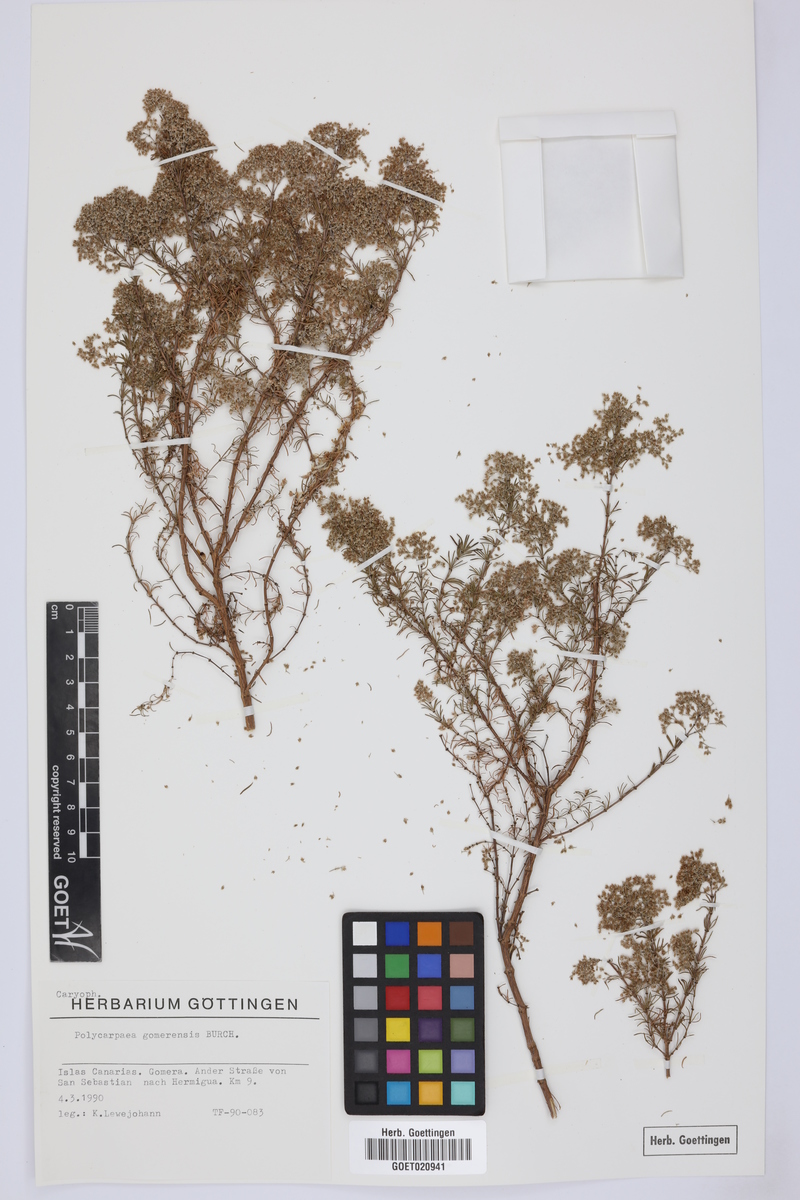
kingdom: Plantae
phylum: Tracheophyta
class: Magnoliopsida
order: Caryophyllales
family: Caryophyllaceae
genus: Polycarpaea
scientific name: Polycarpaea filifolia
